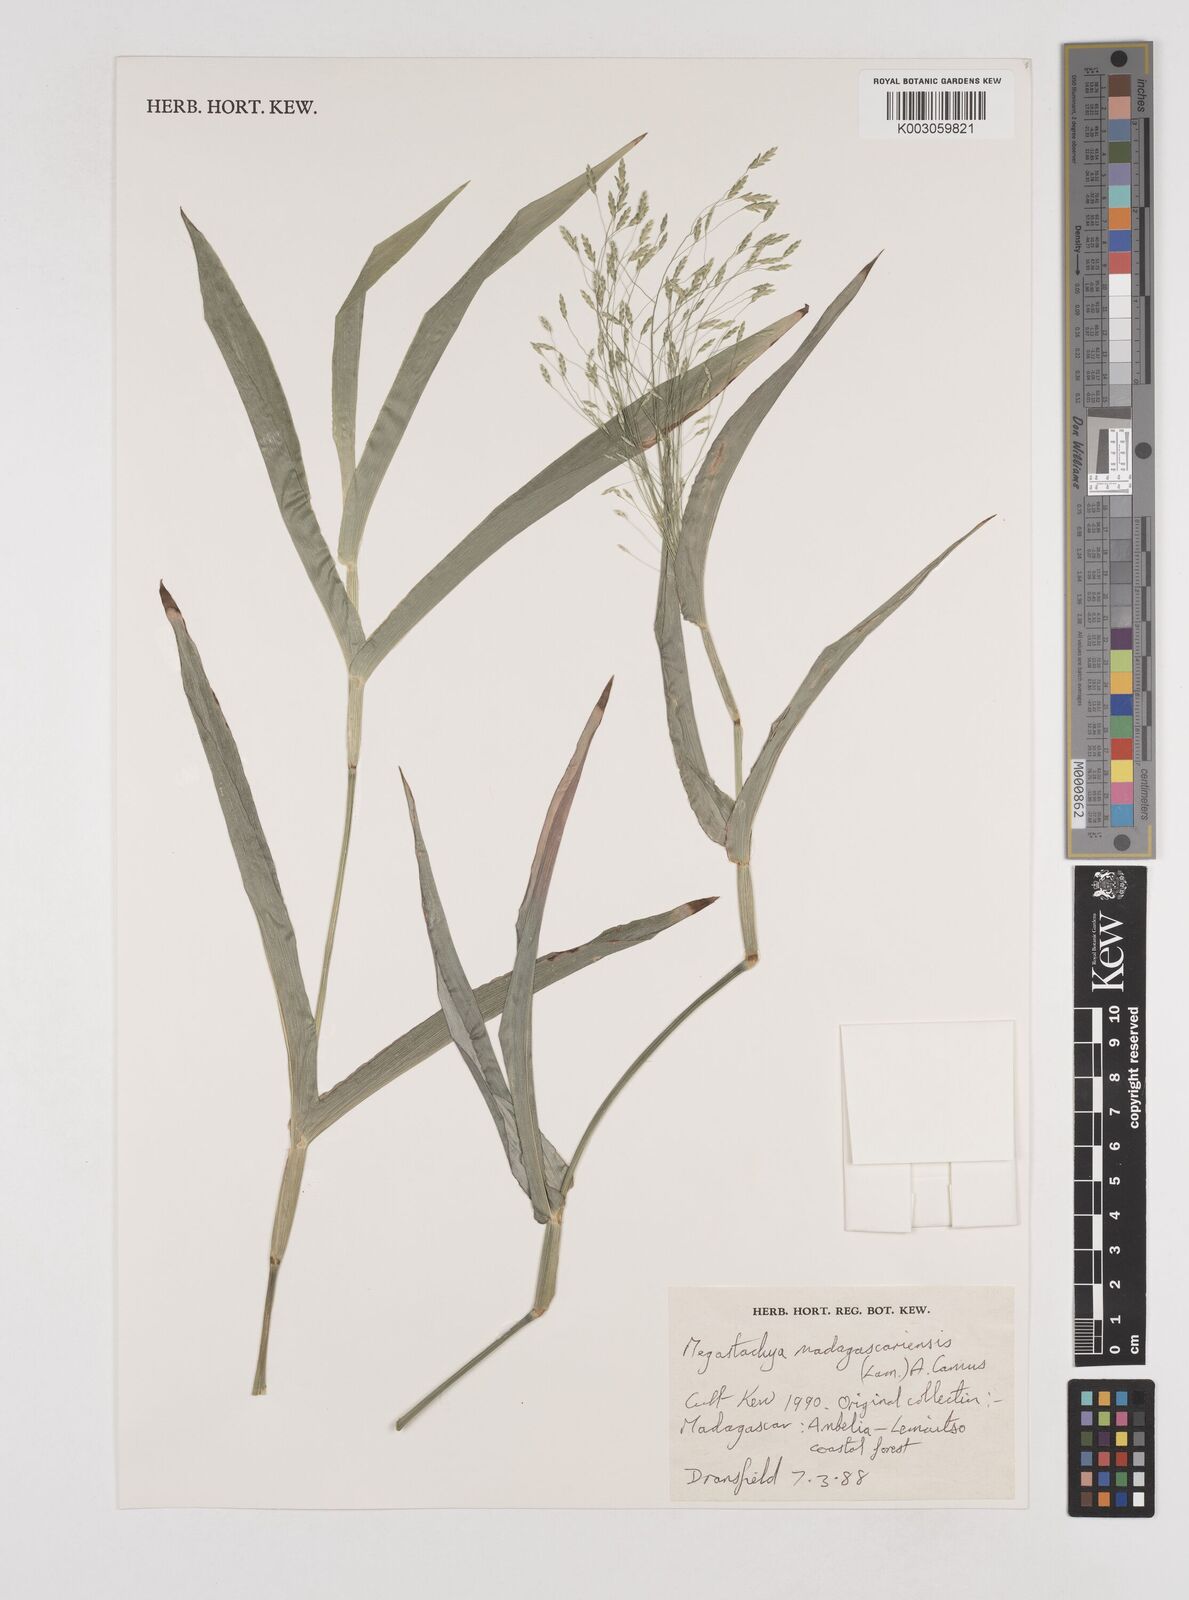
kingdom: Plantae
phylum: Tracheophyta
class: Liliopsida
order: Poales
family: Poaceae
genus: Megastachya
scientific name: Megastachya madagascariensis
